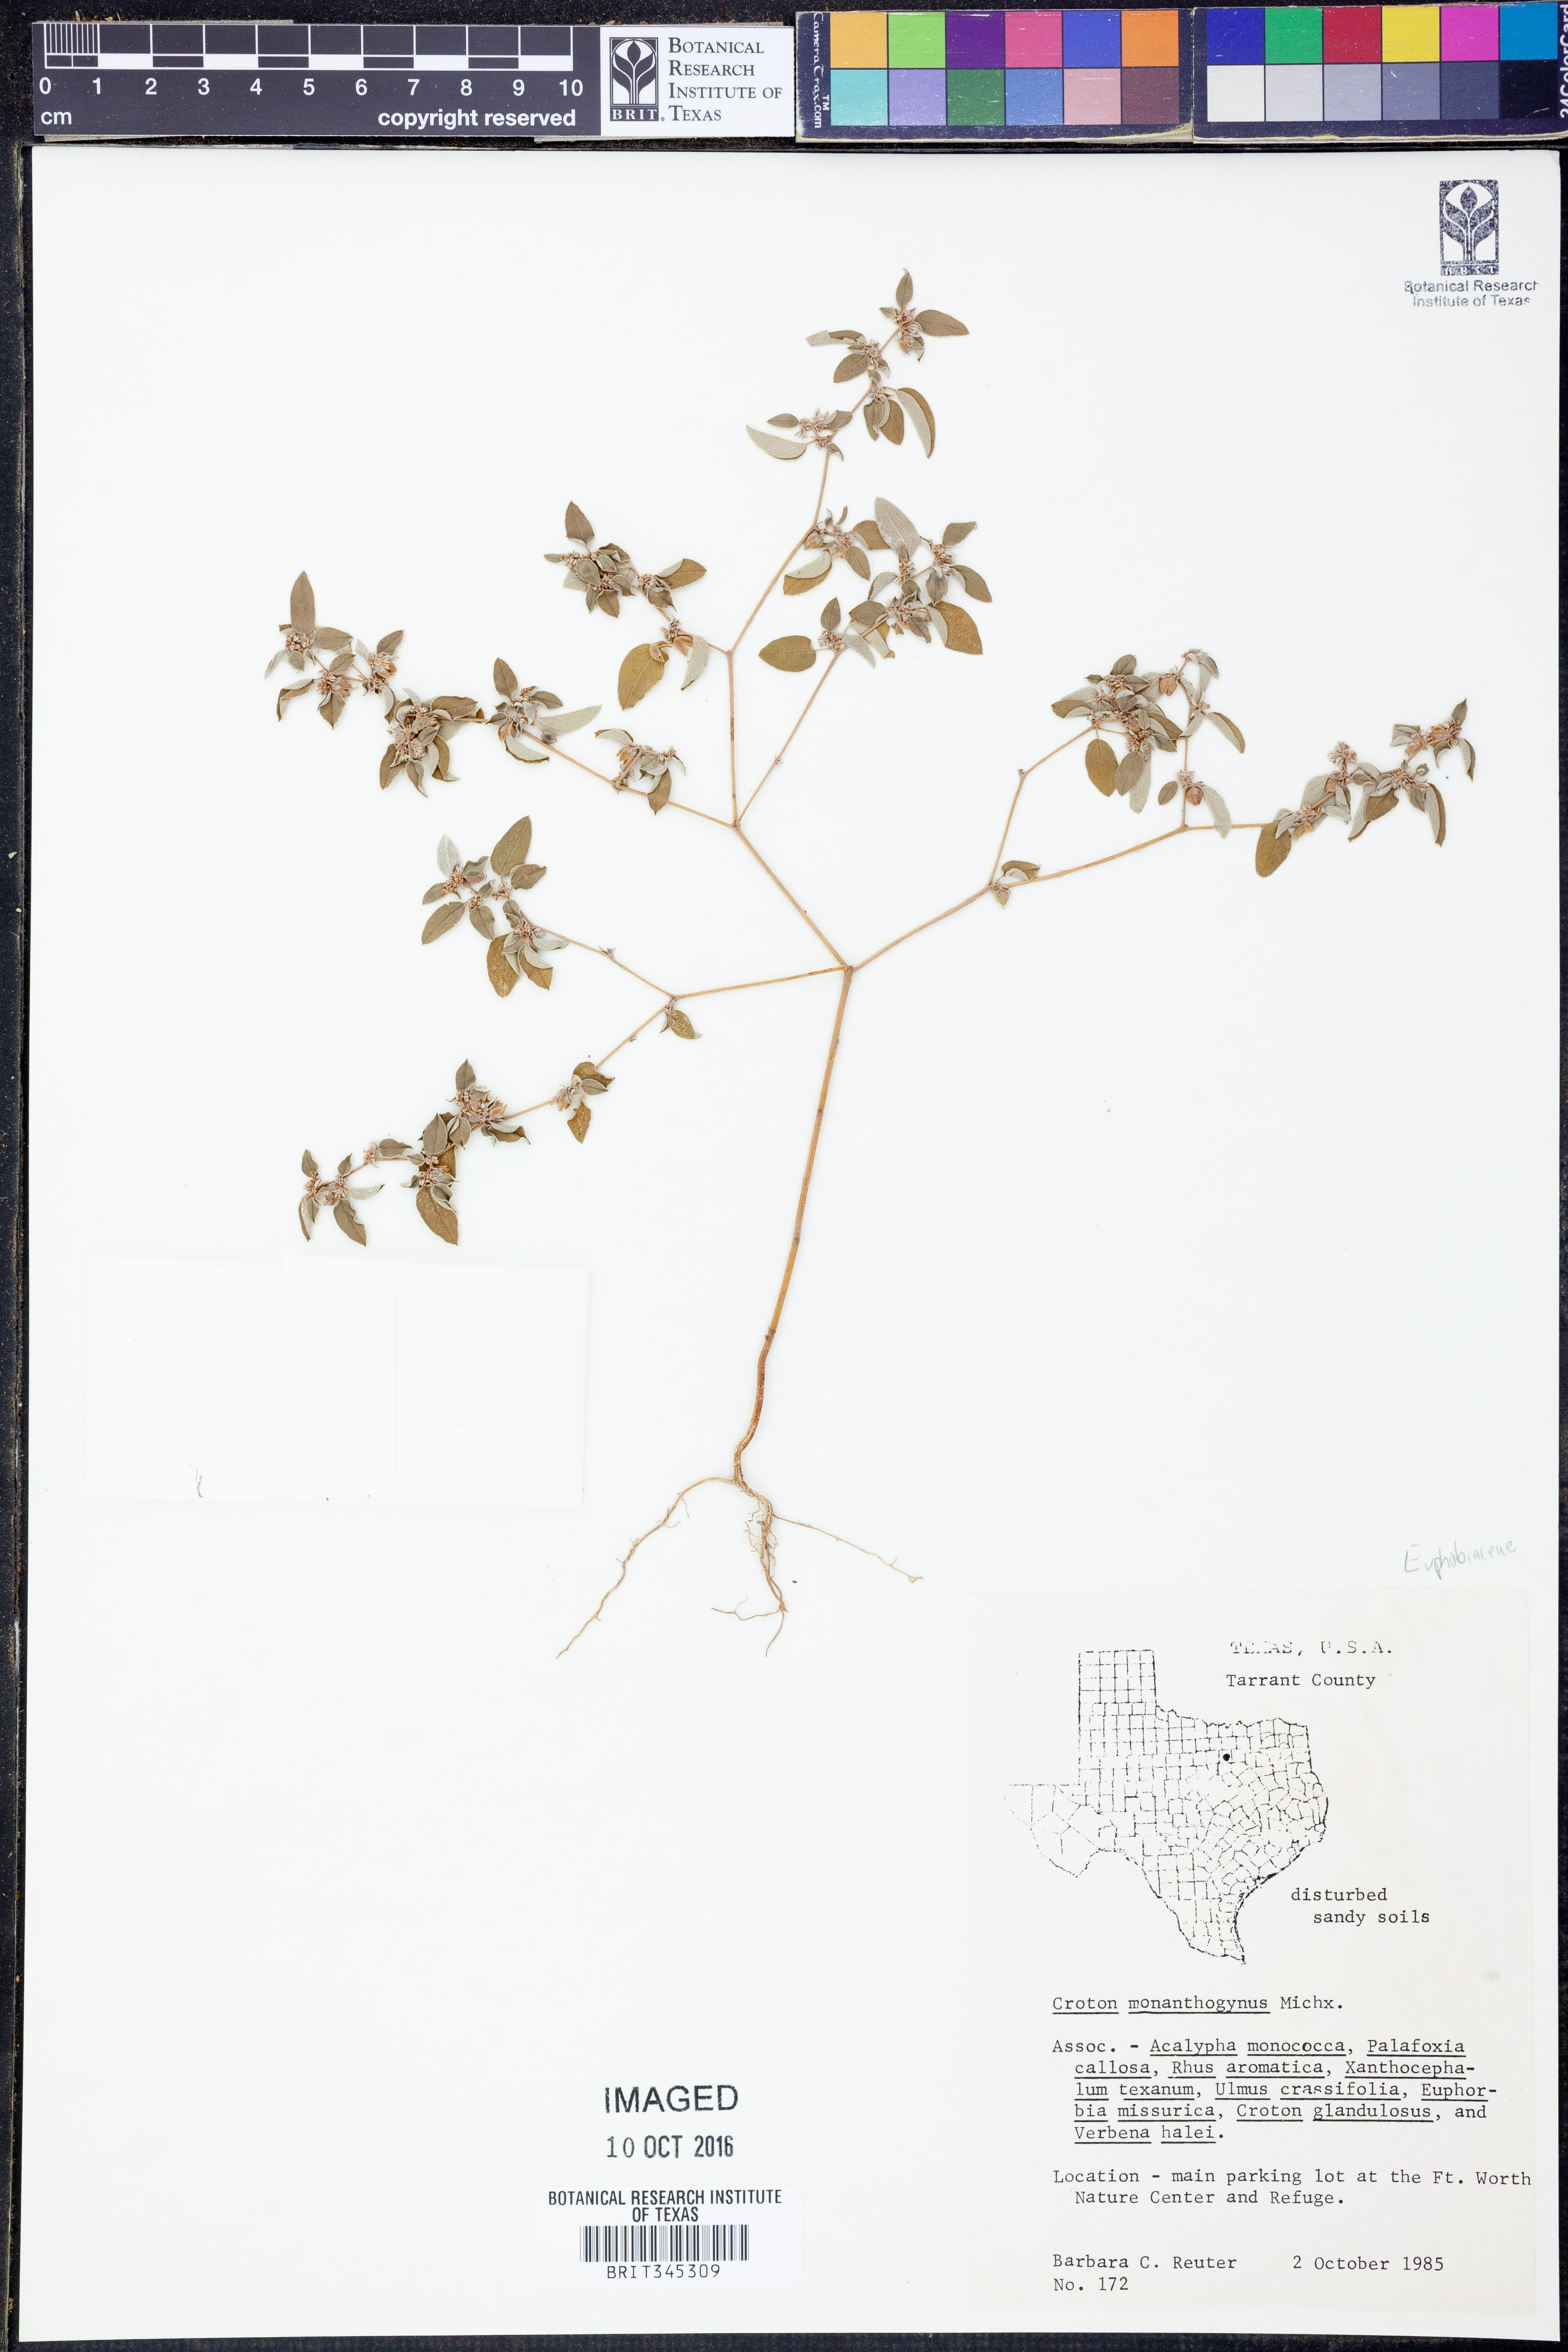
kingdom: Plantae
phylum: Tracheophyta
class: Magnoliopsida
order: Malpighiales
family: Euphorbiaceae
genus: Croton
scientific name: Croton monanthogynus
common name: One-seed croton
